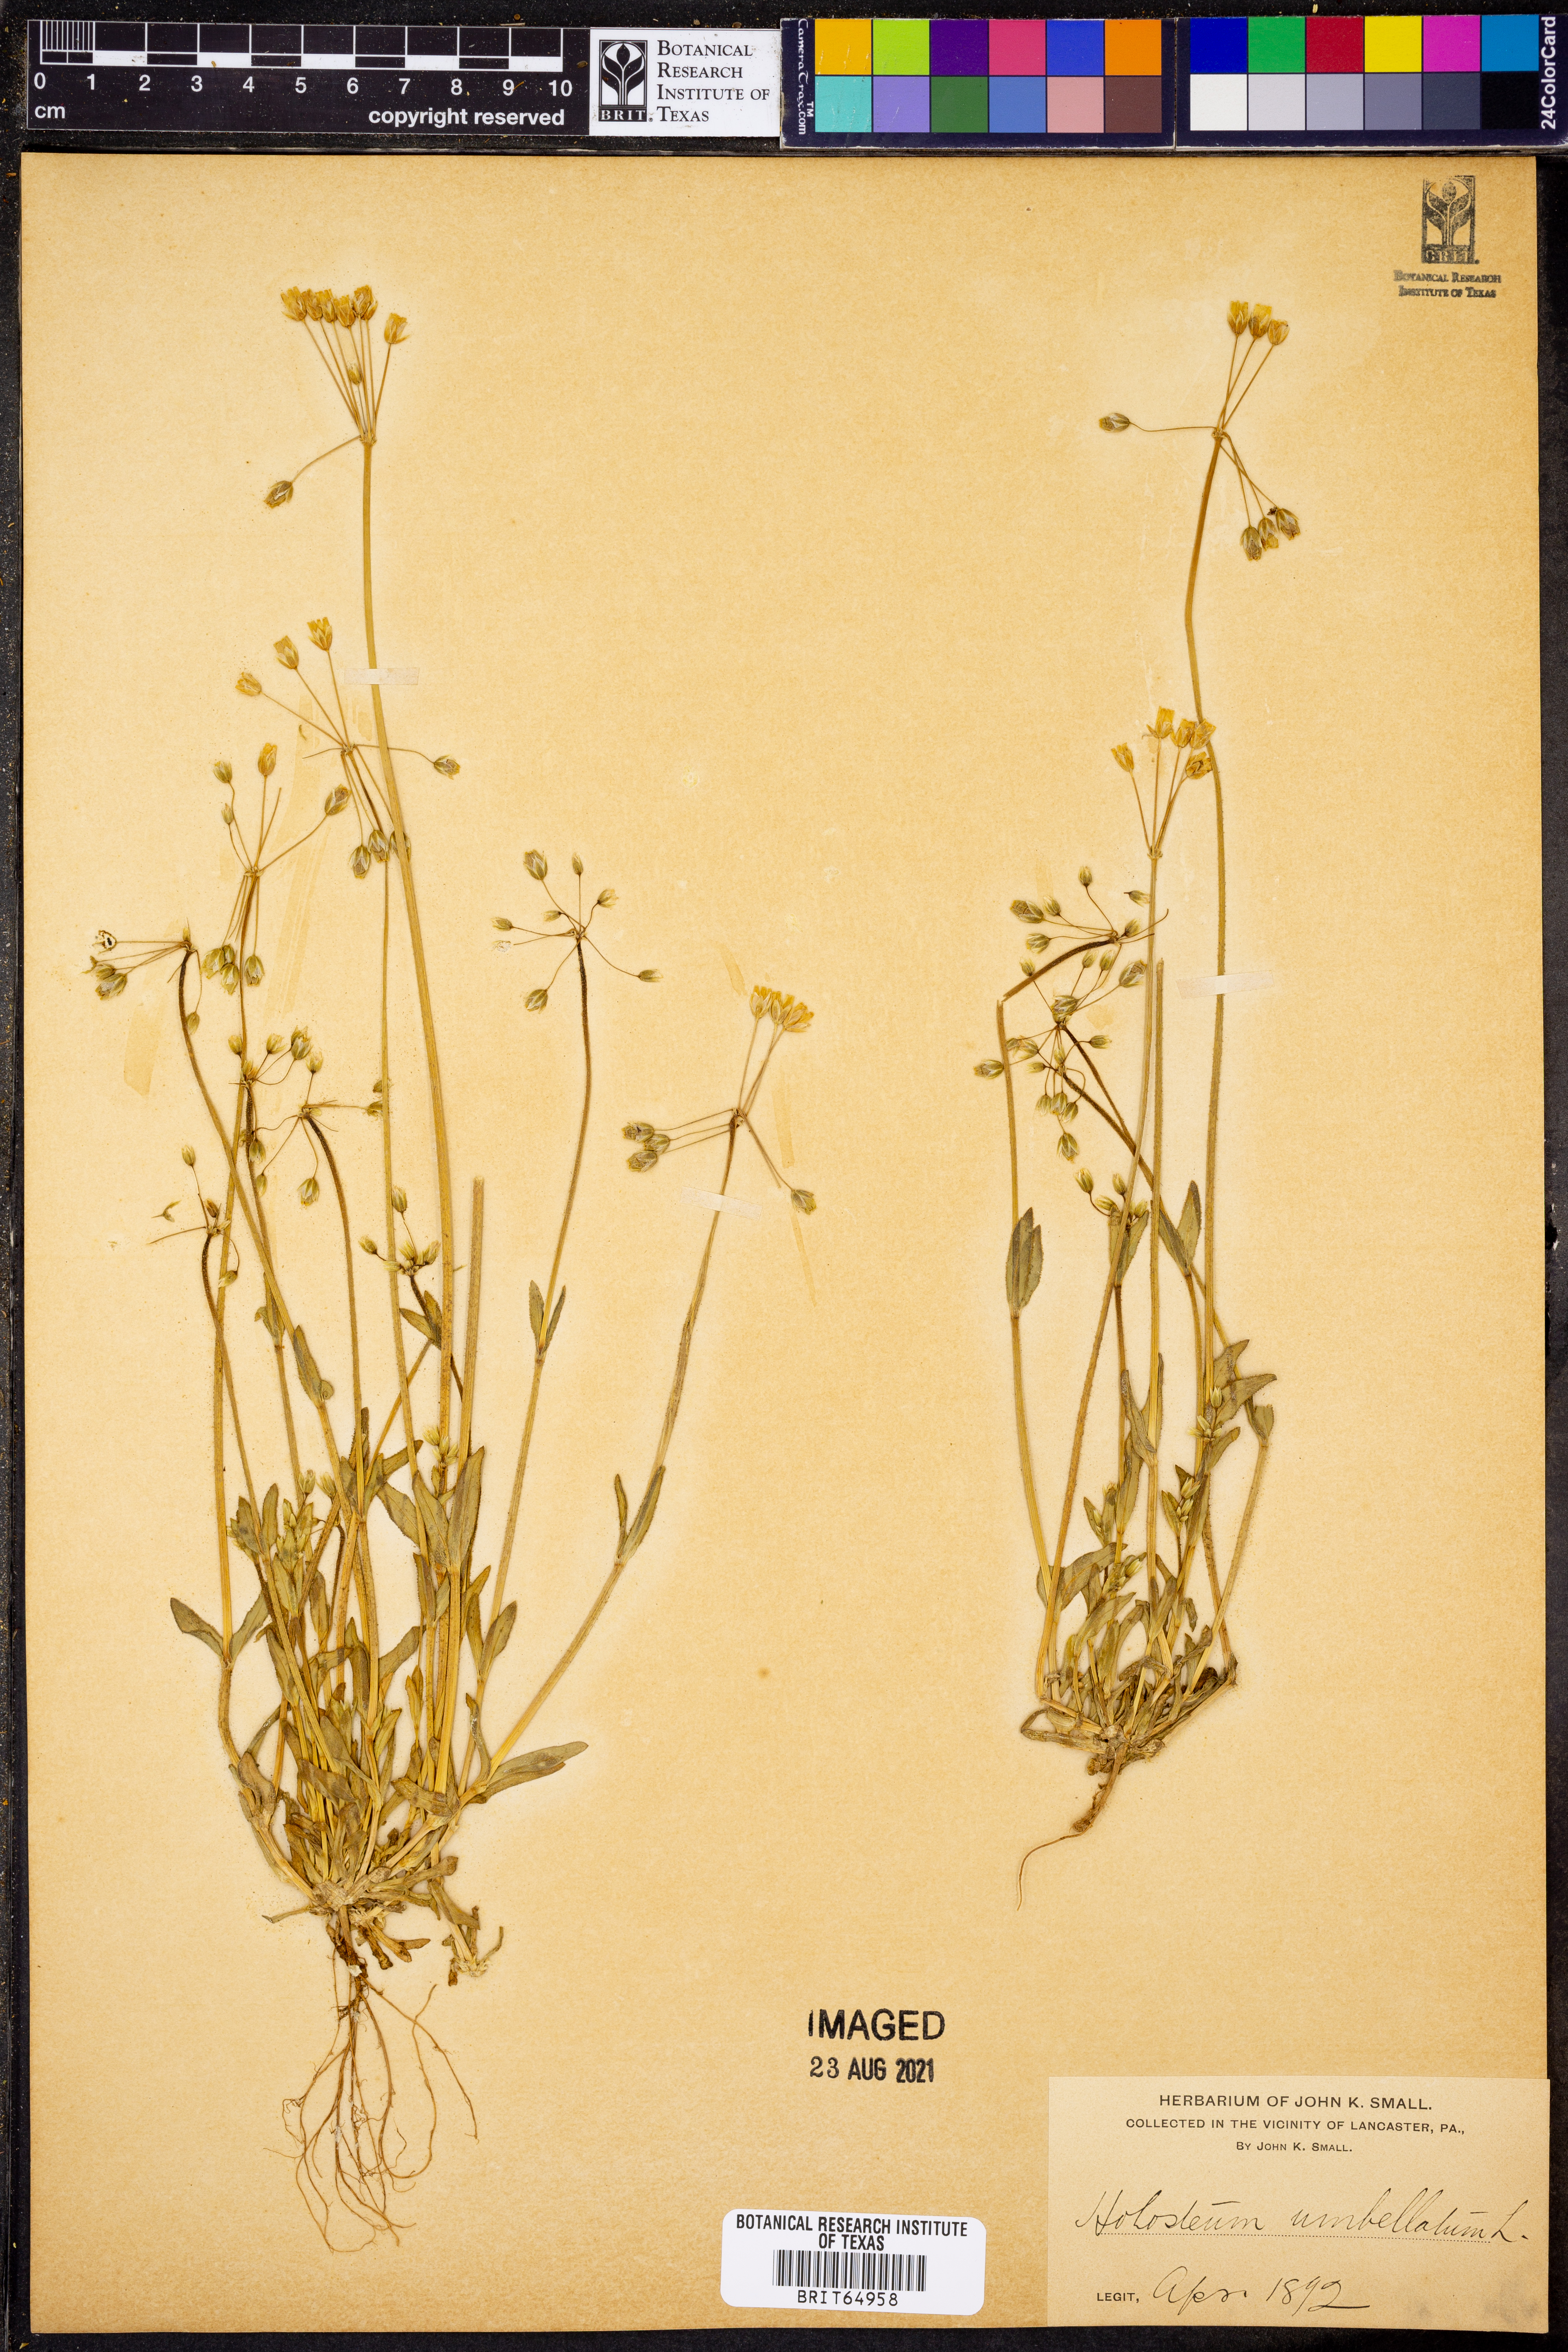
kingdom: Plantae
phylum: Tracheophyta
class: Magnoliopsida
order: Caryophyllales
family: Caryophyllaceae
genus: Holosteum
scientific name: Holosteum umbellatum
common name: Jagged chickweed
